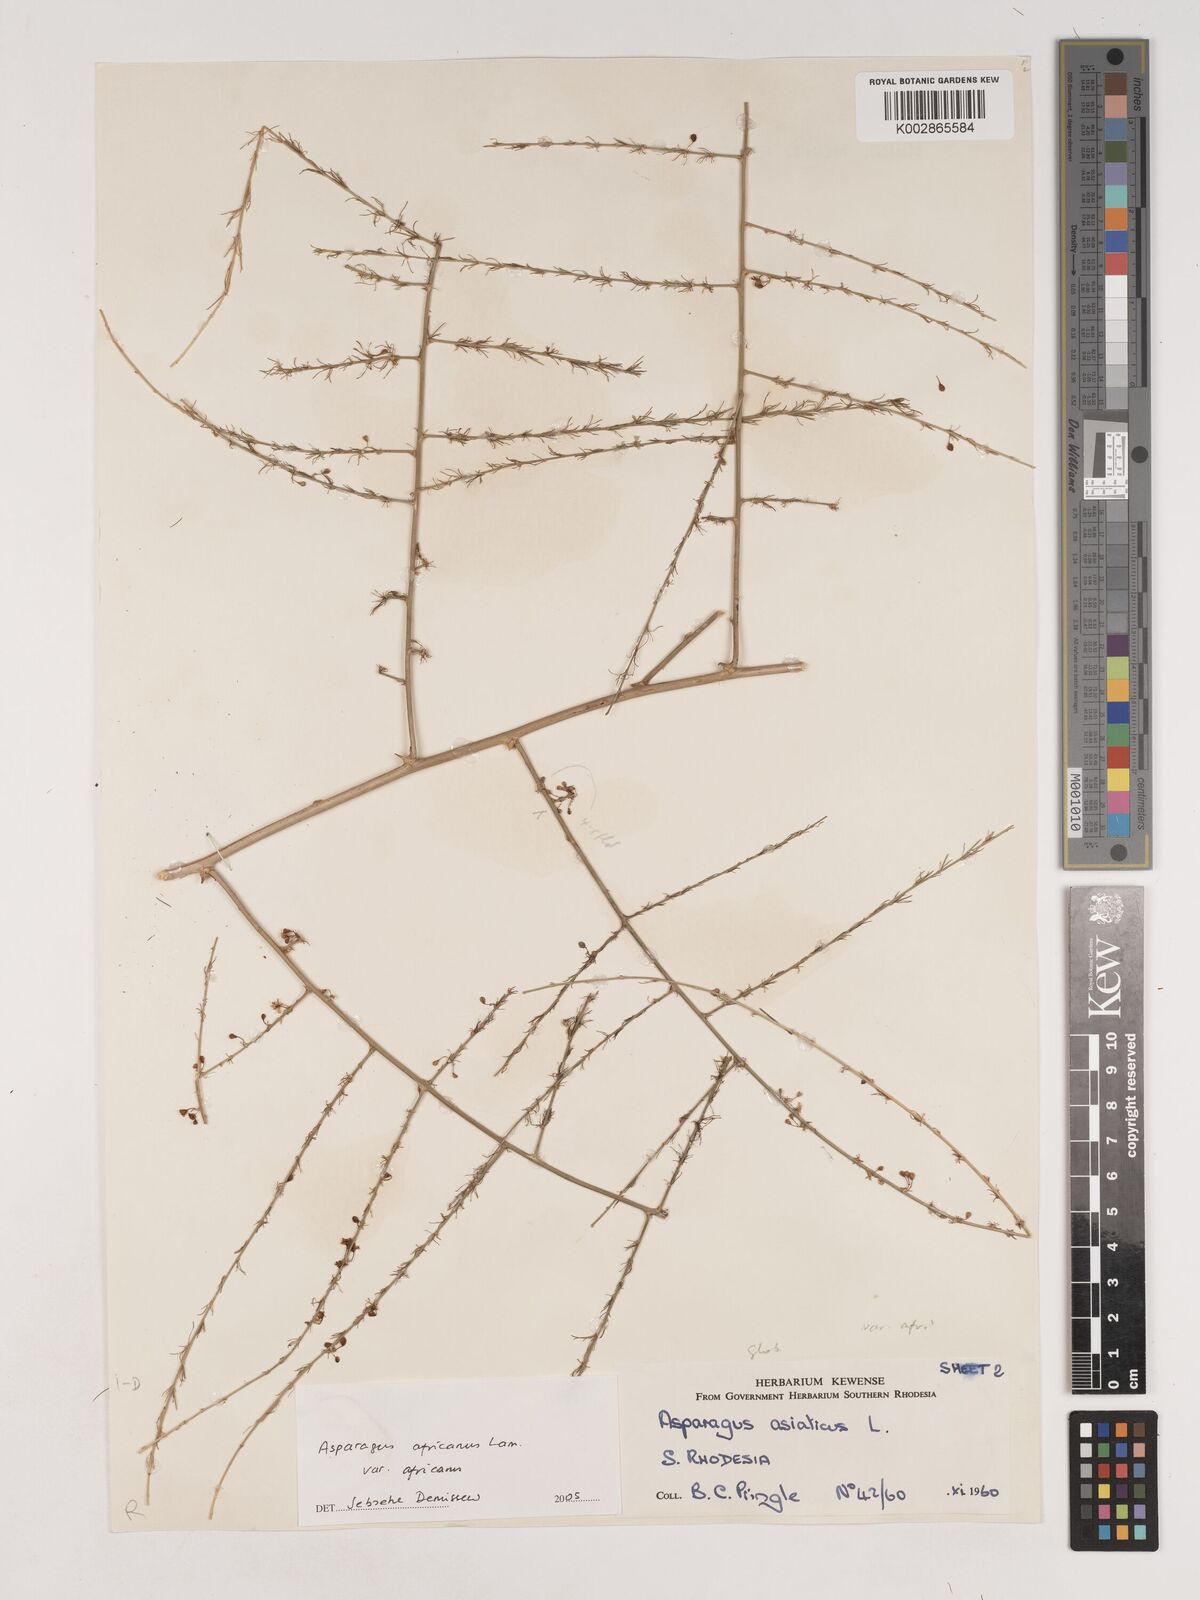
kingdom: Plantae
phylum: Tracheophyta
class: Liliopsida
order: Asparagales
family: Asparagaceae
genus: Asparagus
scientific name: Asparagus africanus
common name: Asparagus-fern
